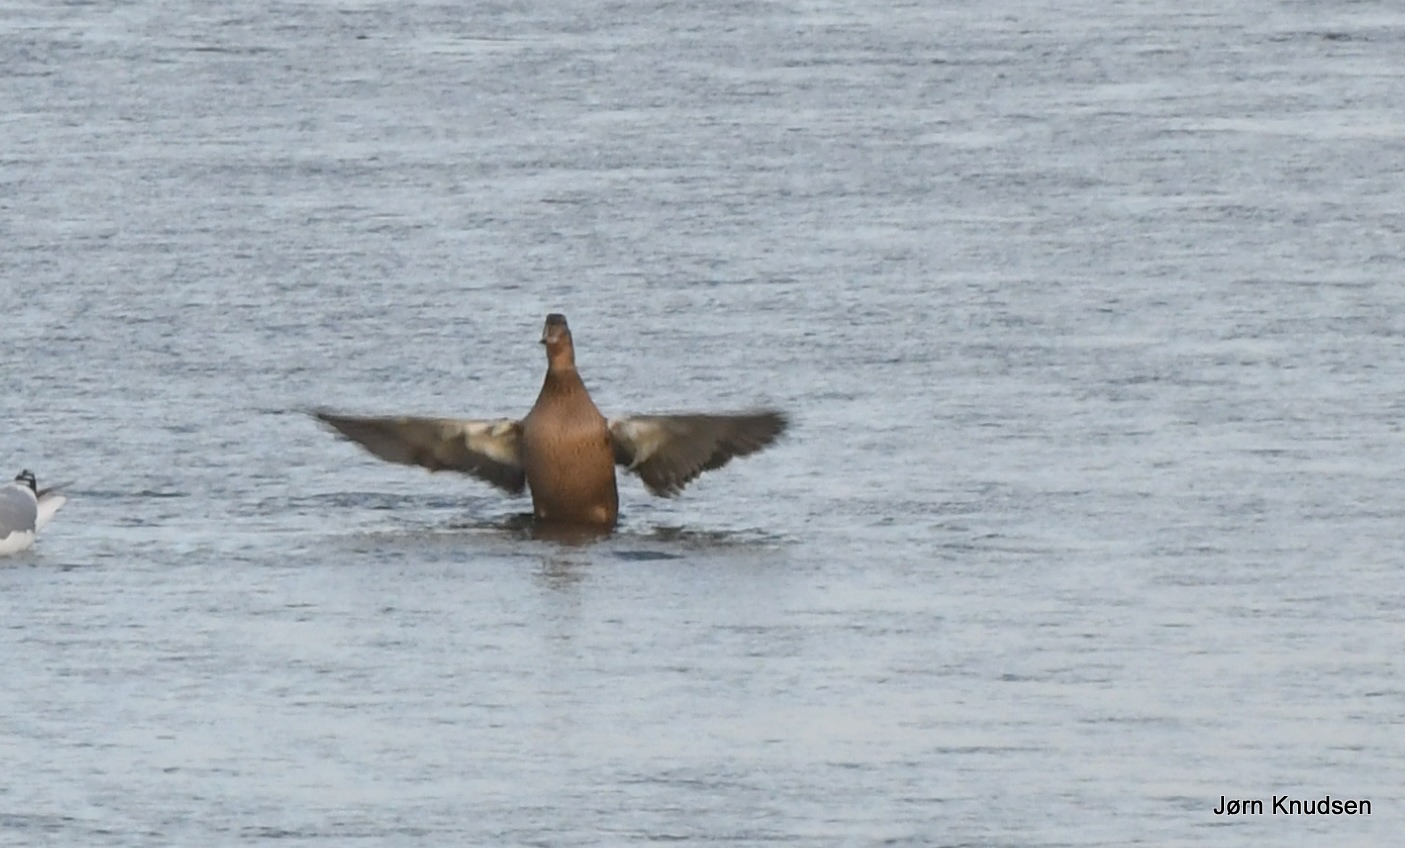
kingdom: Animalia
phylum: Chordata
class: Aves
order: Anseriformes
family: Anatidae
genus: Somateria
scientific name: Somateria mollissima
